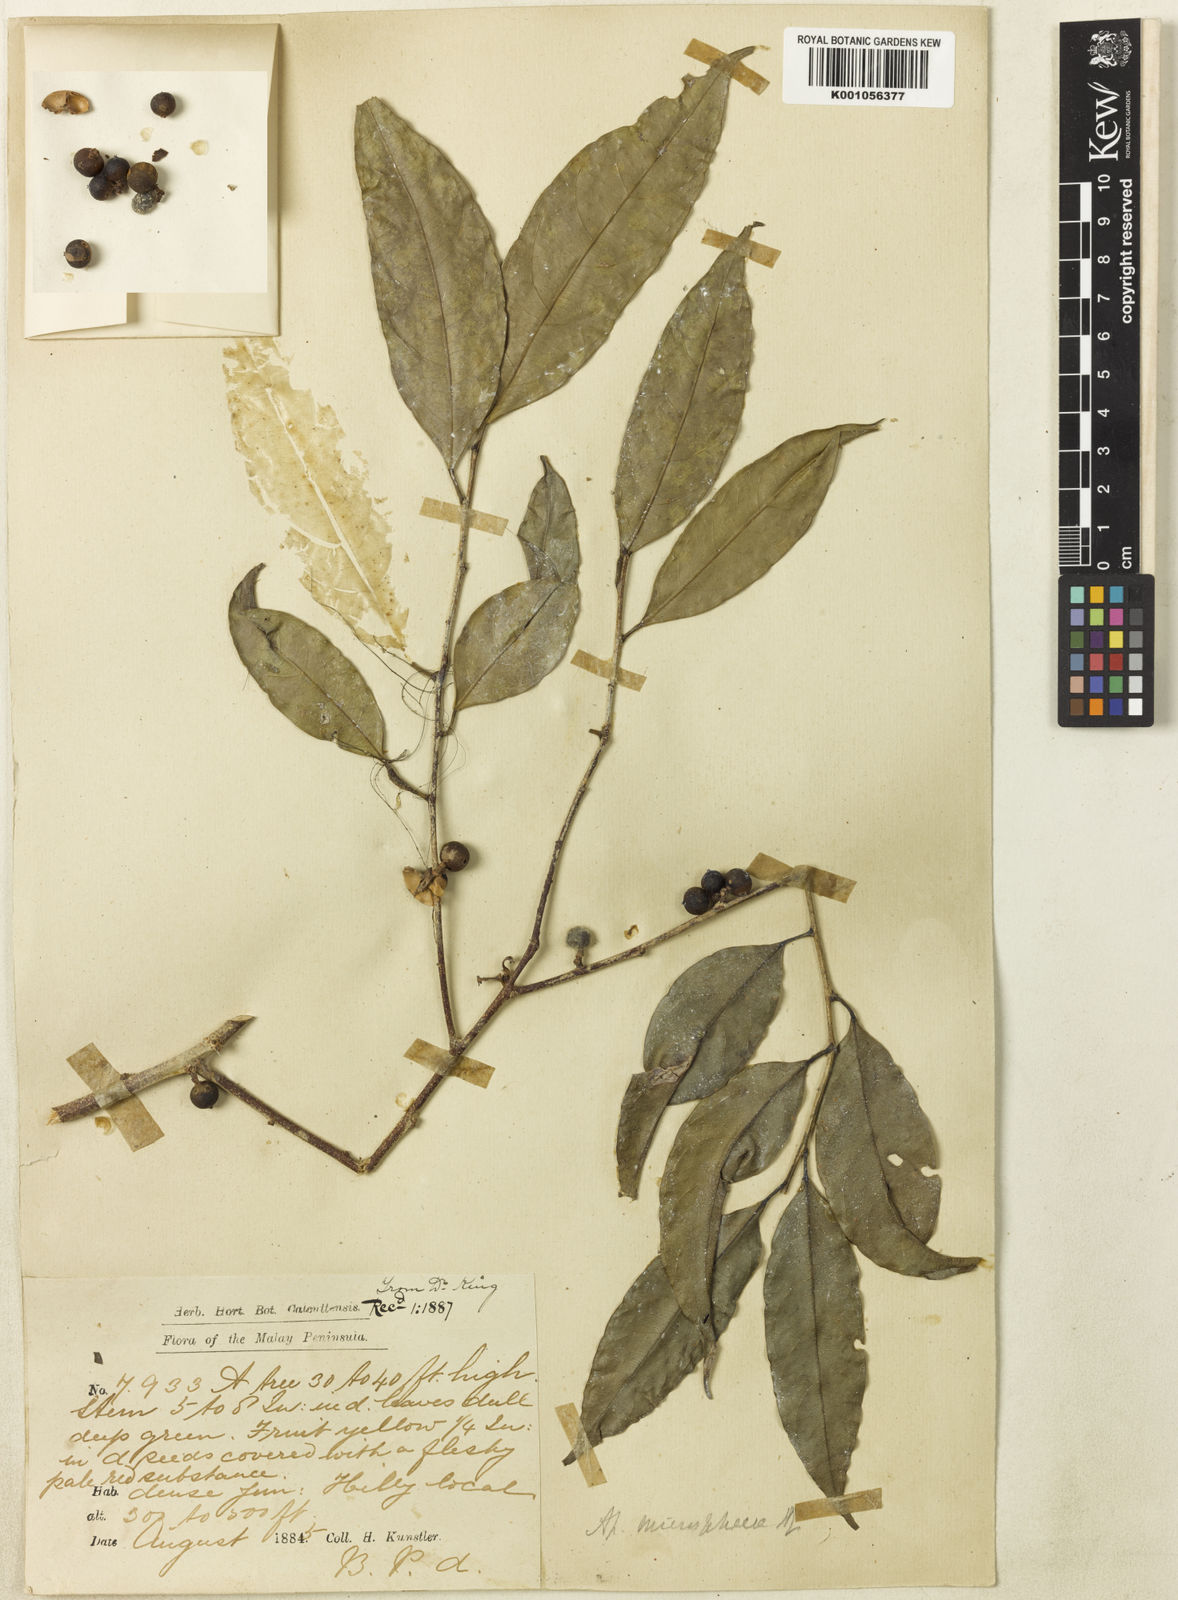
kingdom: Plantae
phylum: Tracheophyta
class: Magnoliopsida
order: Malpighiales
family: Phyllanthaceae
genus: Aporosa
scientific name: Aporosa lucida
